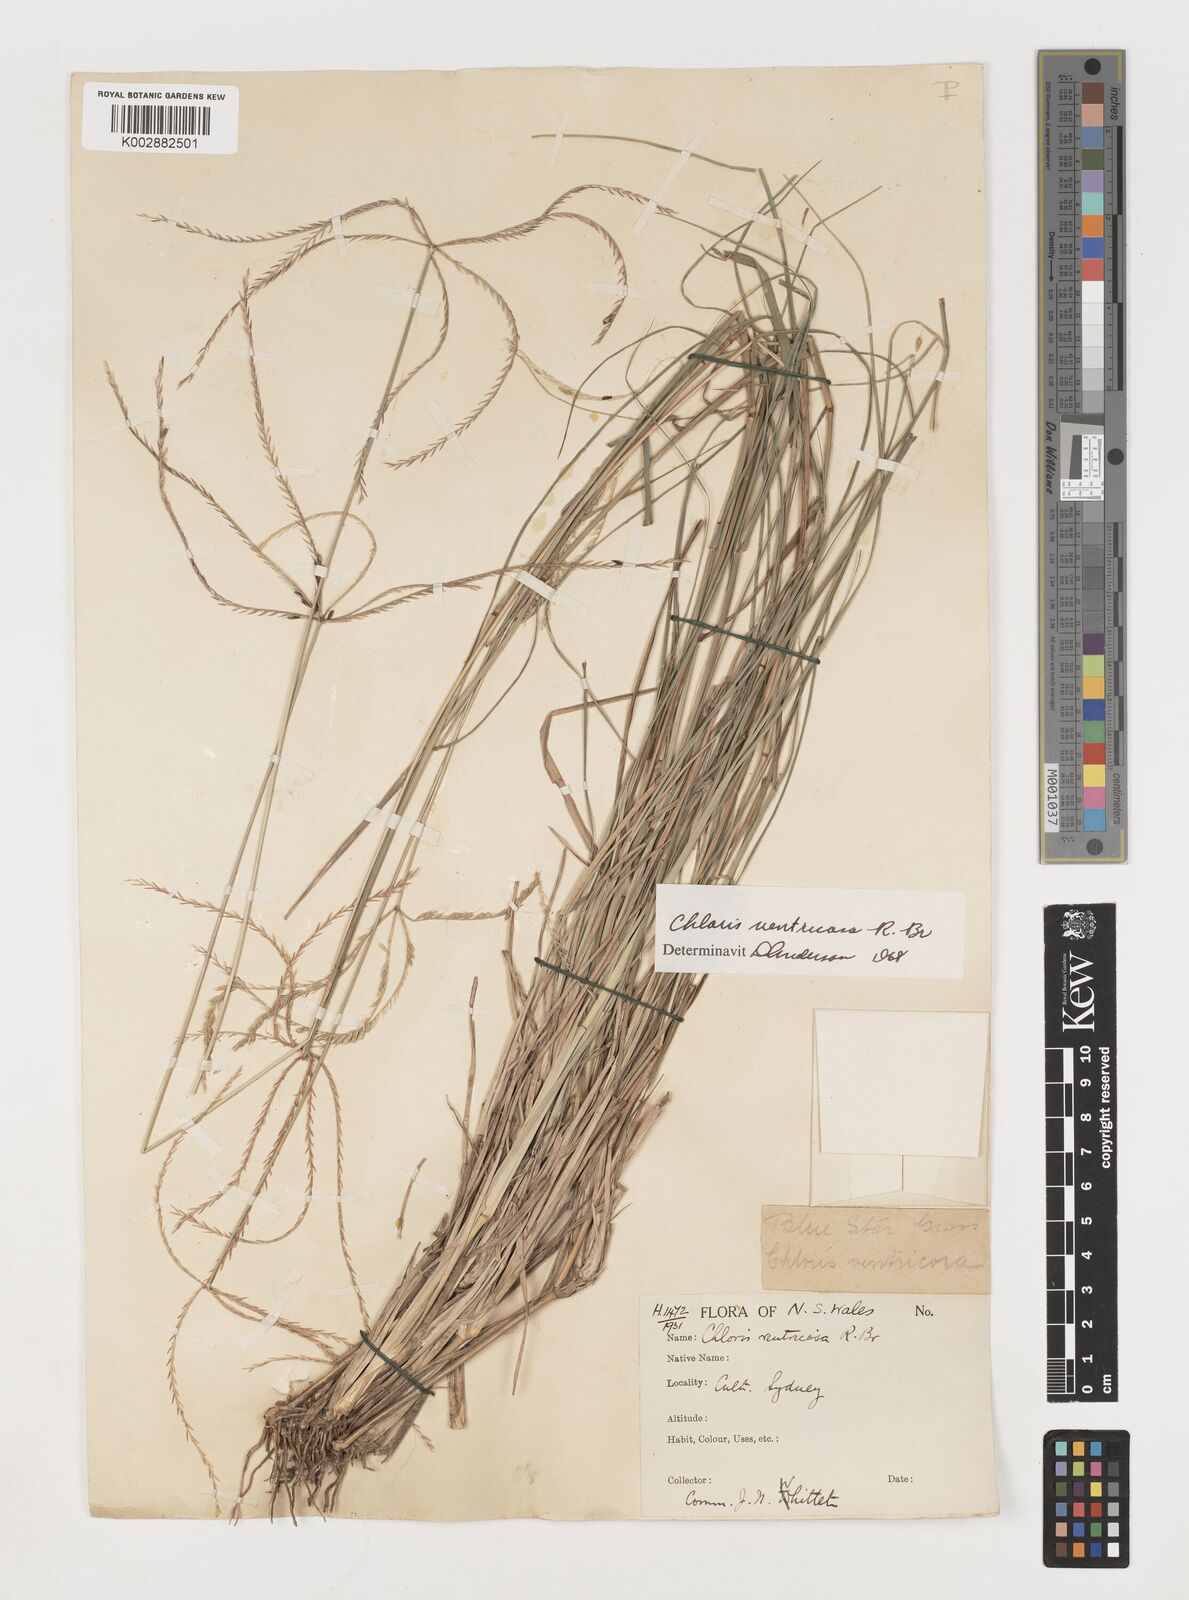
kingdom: Plantae
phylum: Tracheophyta
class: Liliopsida
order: Poales
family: Poaceae
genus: Chloris
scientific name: Chloris ventricosa
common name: Australian windmill grass
